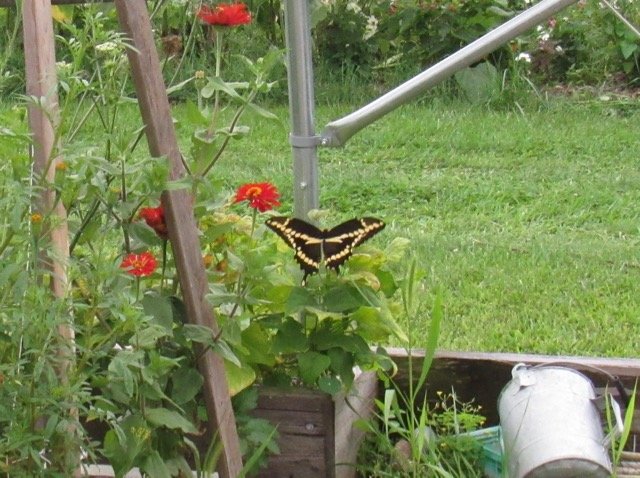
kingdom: Animalia
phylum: Arthropoda
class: Insecta
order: Lepidoptera
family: Papilionidae
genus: Papilio
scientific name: Papilio cresphontes
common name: Eastern Giant Swallowtail
